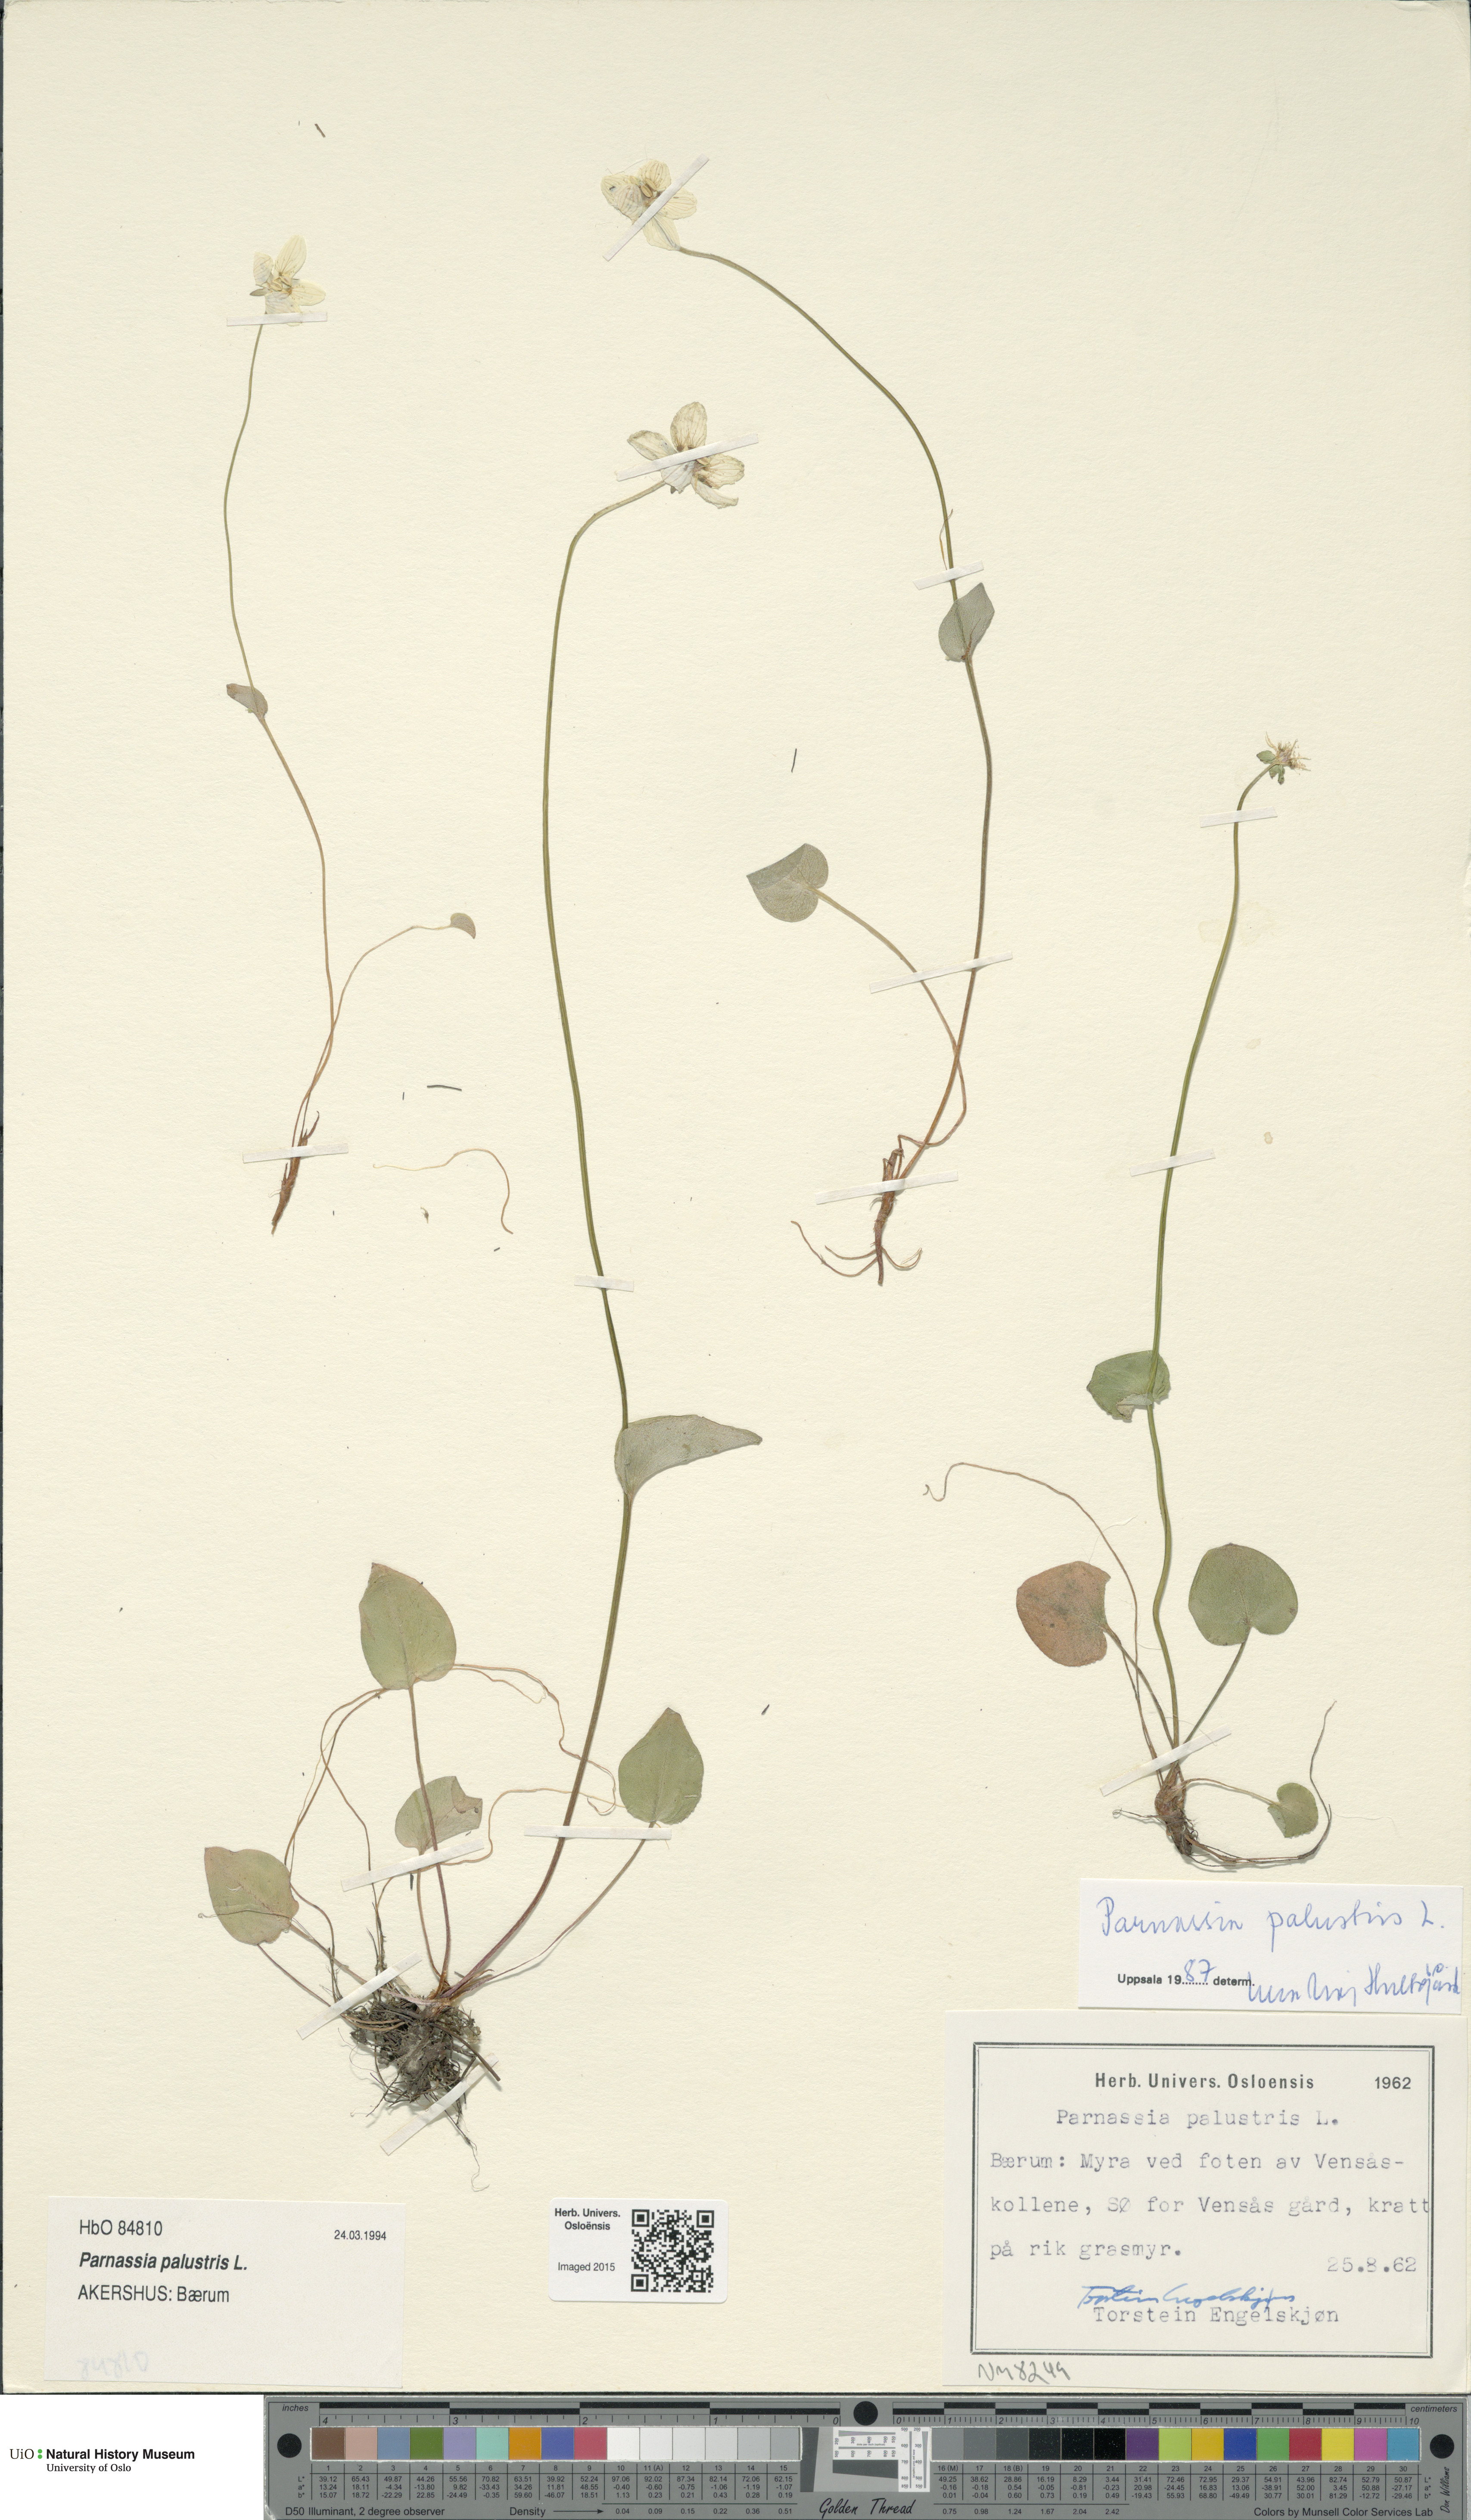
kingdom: Plantae
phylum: Tracheophyta
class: Magnoliopsida
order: Celastrales
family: Parnassiaceae
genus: Parnassia
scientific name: Parnassia palustris
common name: Grass-of-parnassus
